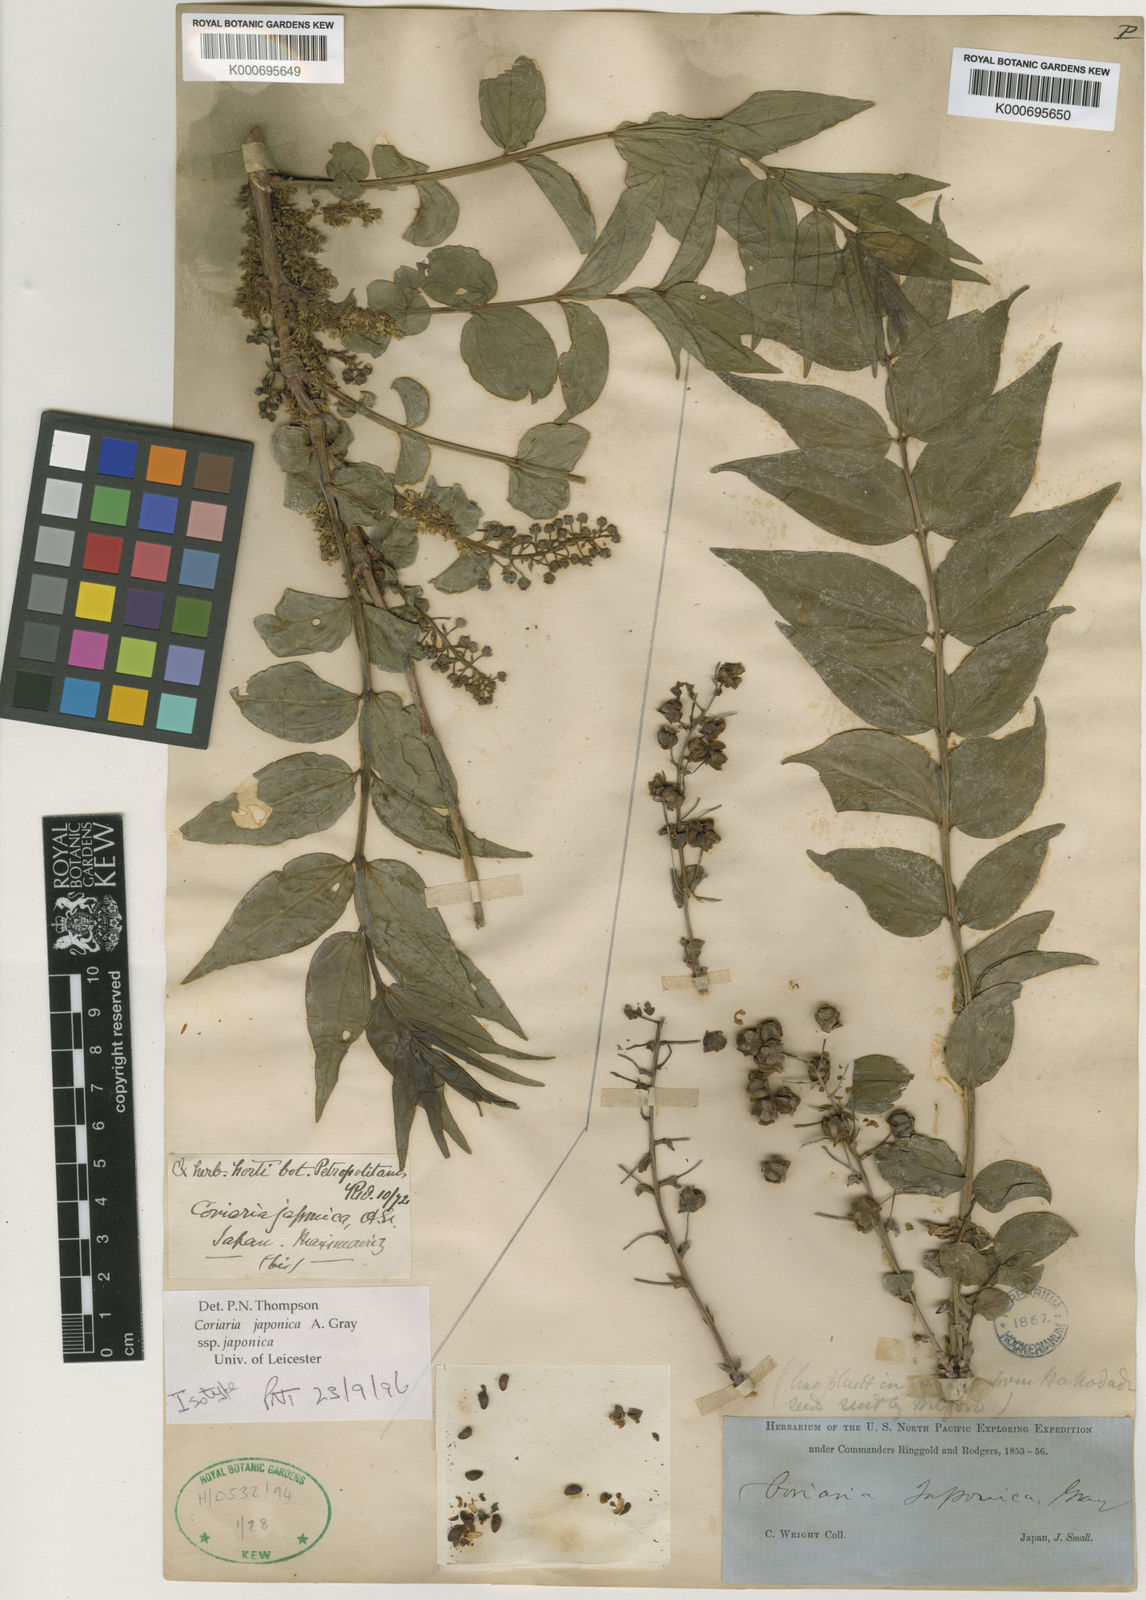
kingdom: Plantae
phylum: Tracheophyta
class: Magnoliopsida
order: Cucurbitales
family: Coriariaceae
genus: Coriaria
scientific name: Coriaria japonica
